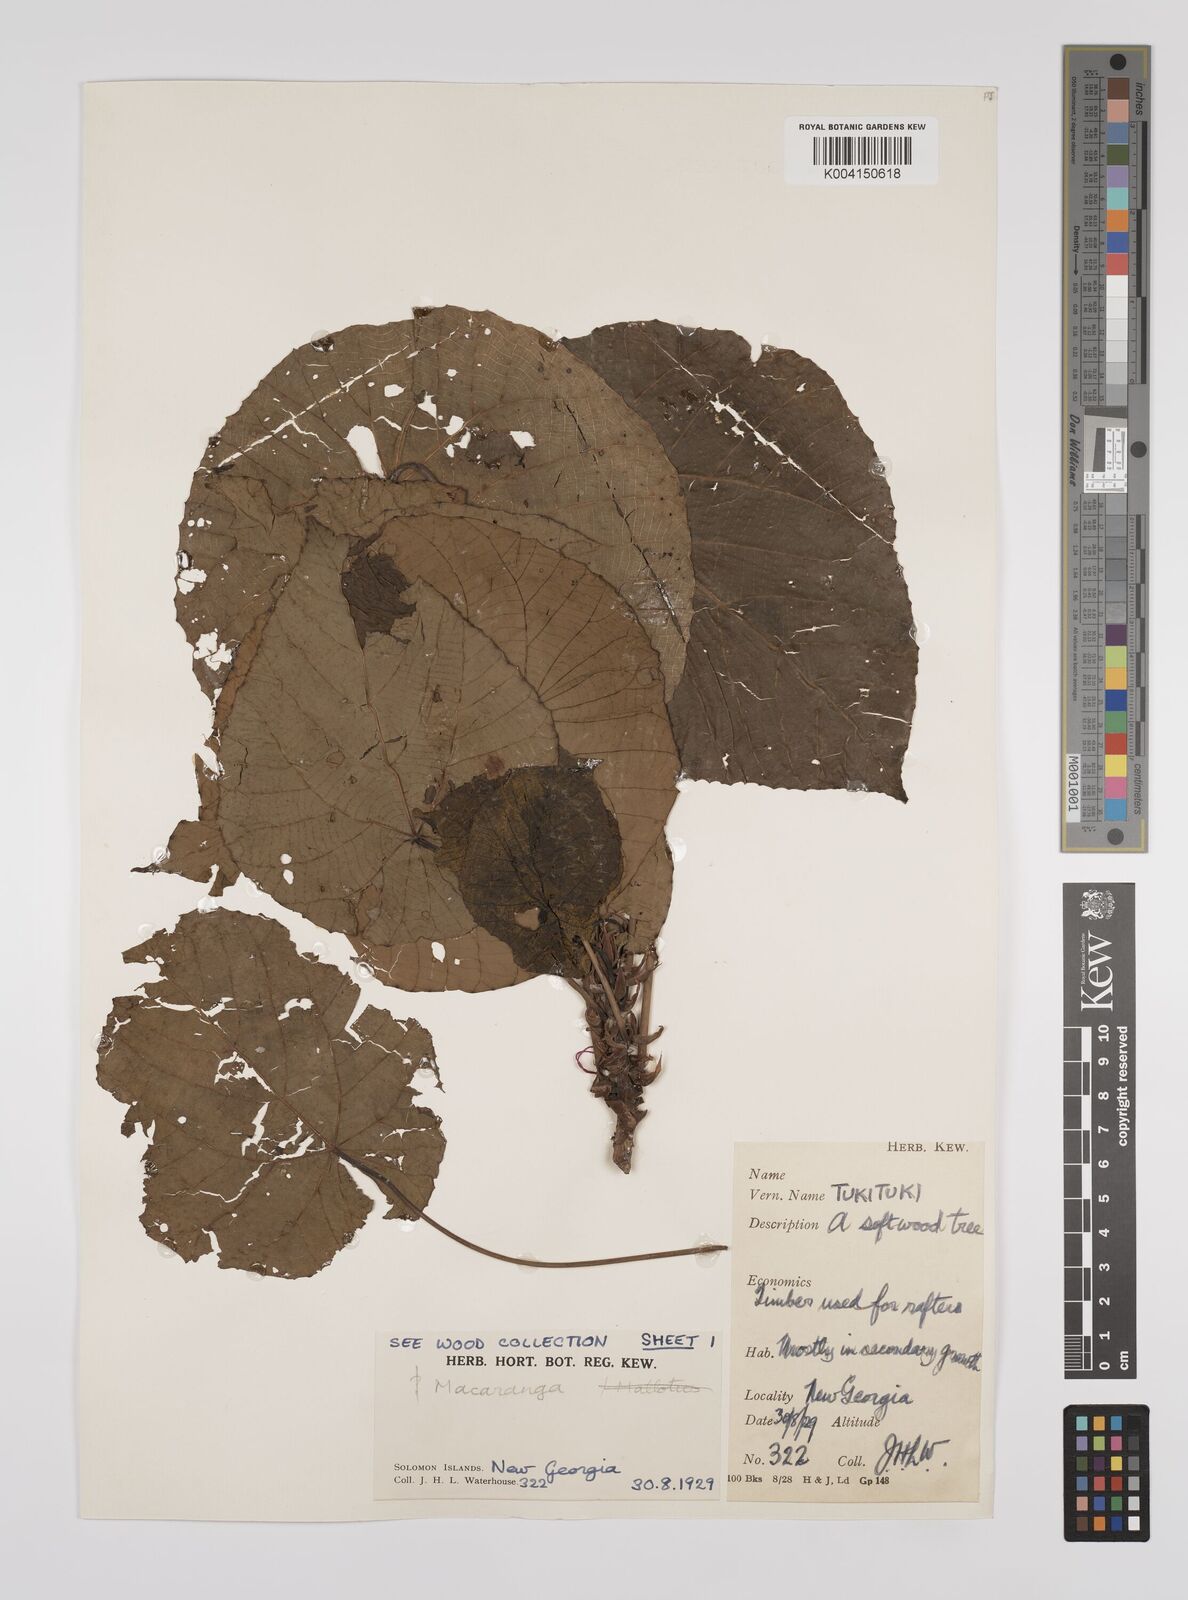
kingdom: Plantae
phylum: Tracheophyta
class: Magnoliopsida
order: Malpighiales
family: Euphorbiaceae
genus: Macaranga
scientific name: Macaranga tanarius
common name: Parasol leaf tree
